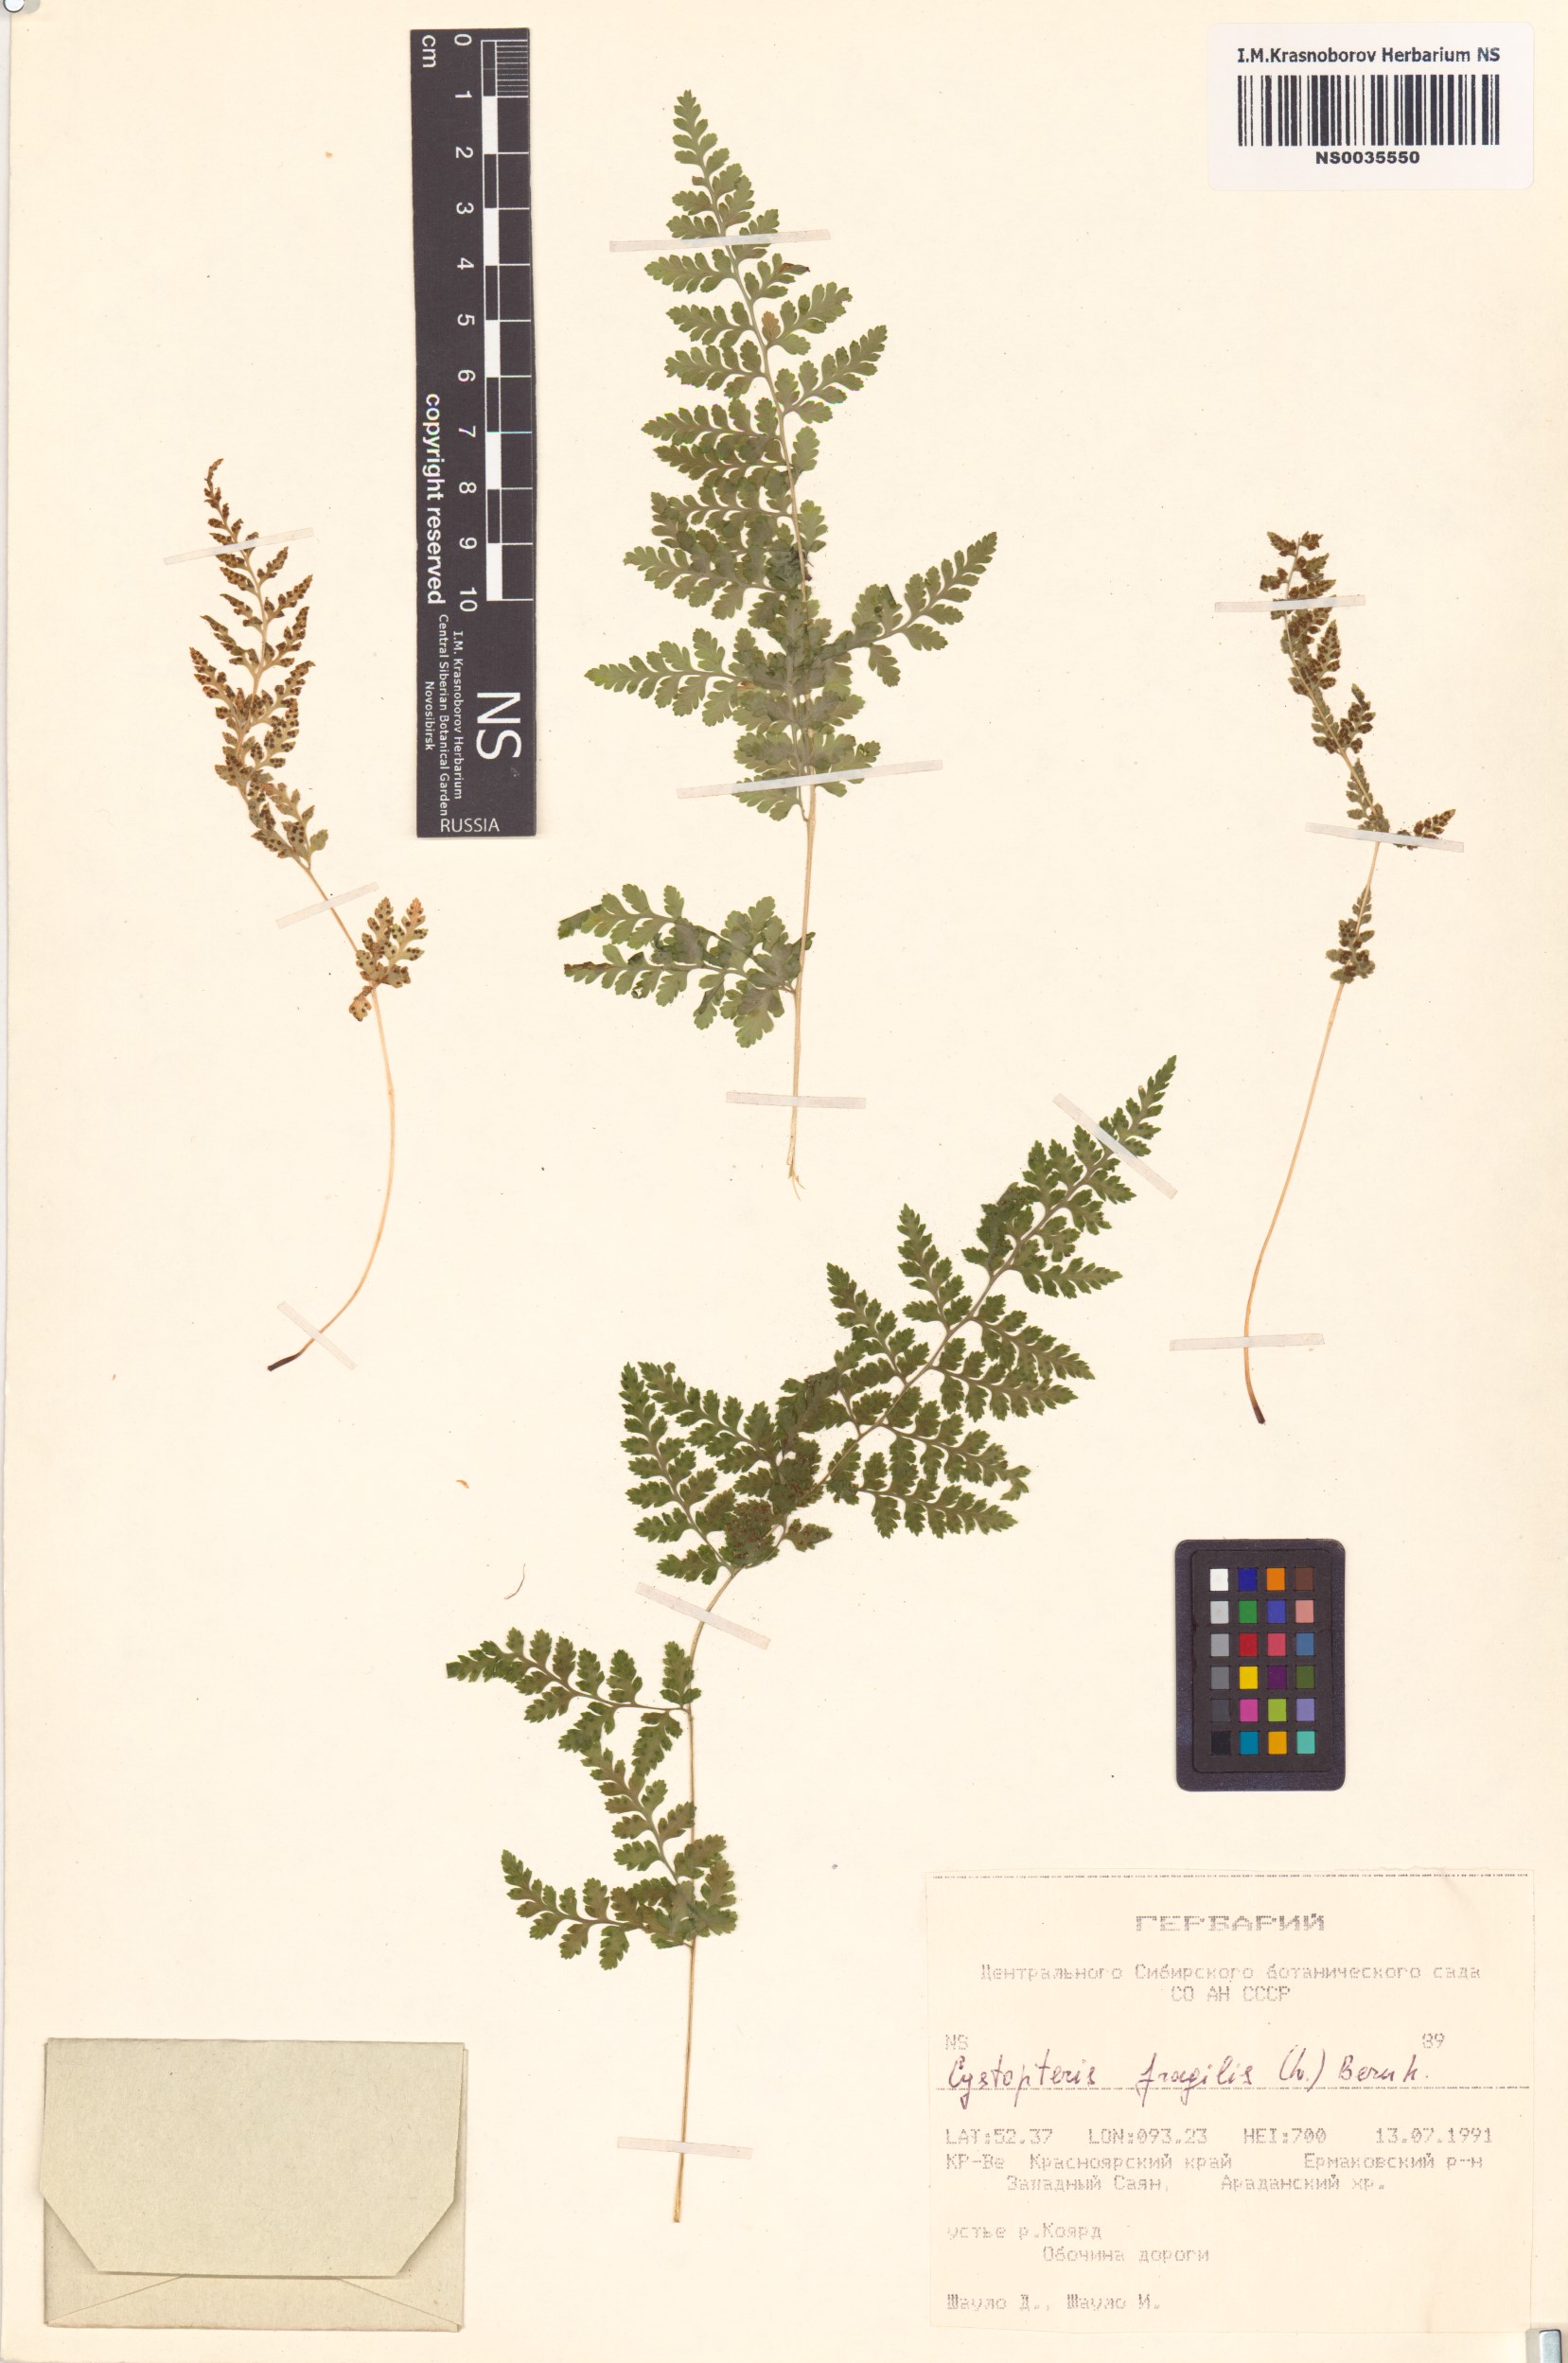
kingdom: Plantae
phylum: Tracheophyta
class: Polypodiopsida
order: Polypodiales
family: Cystopteridaceae
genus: Cystopteris
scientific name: Cystopteris fragilis
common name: Brittle bladder fern
